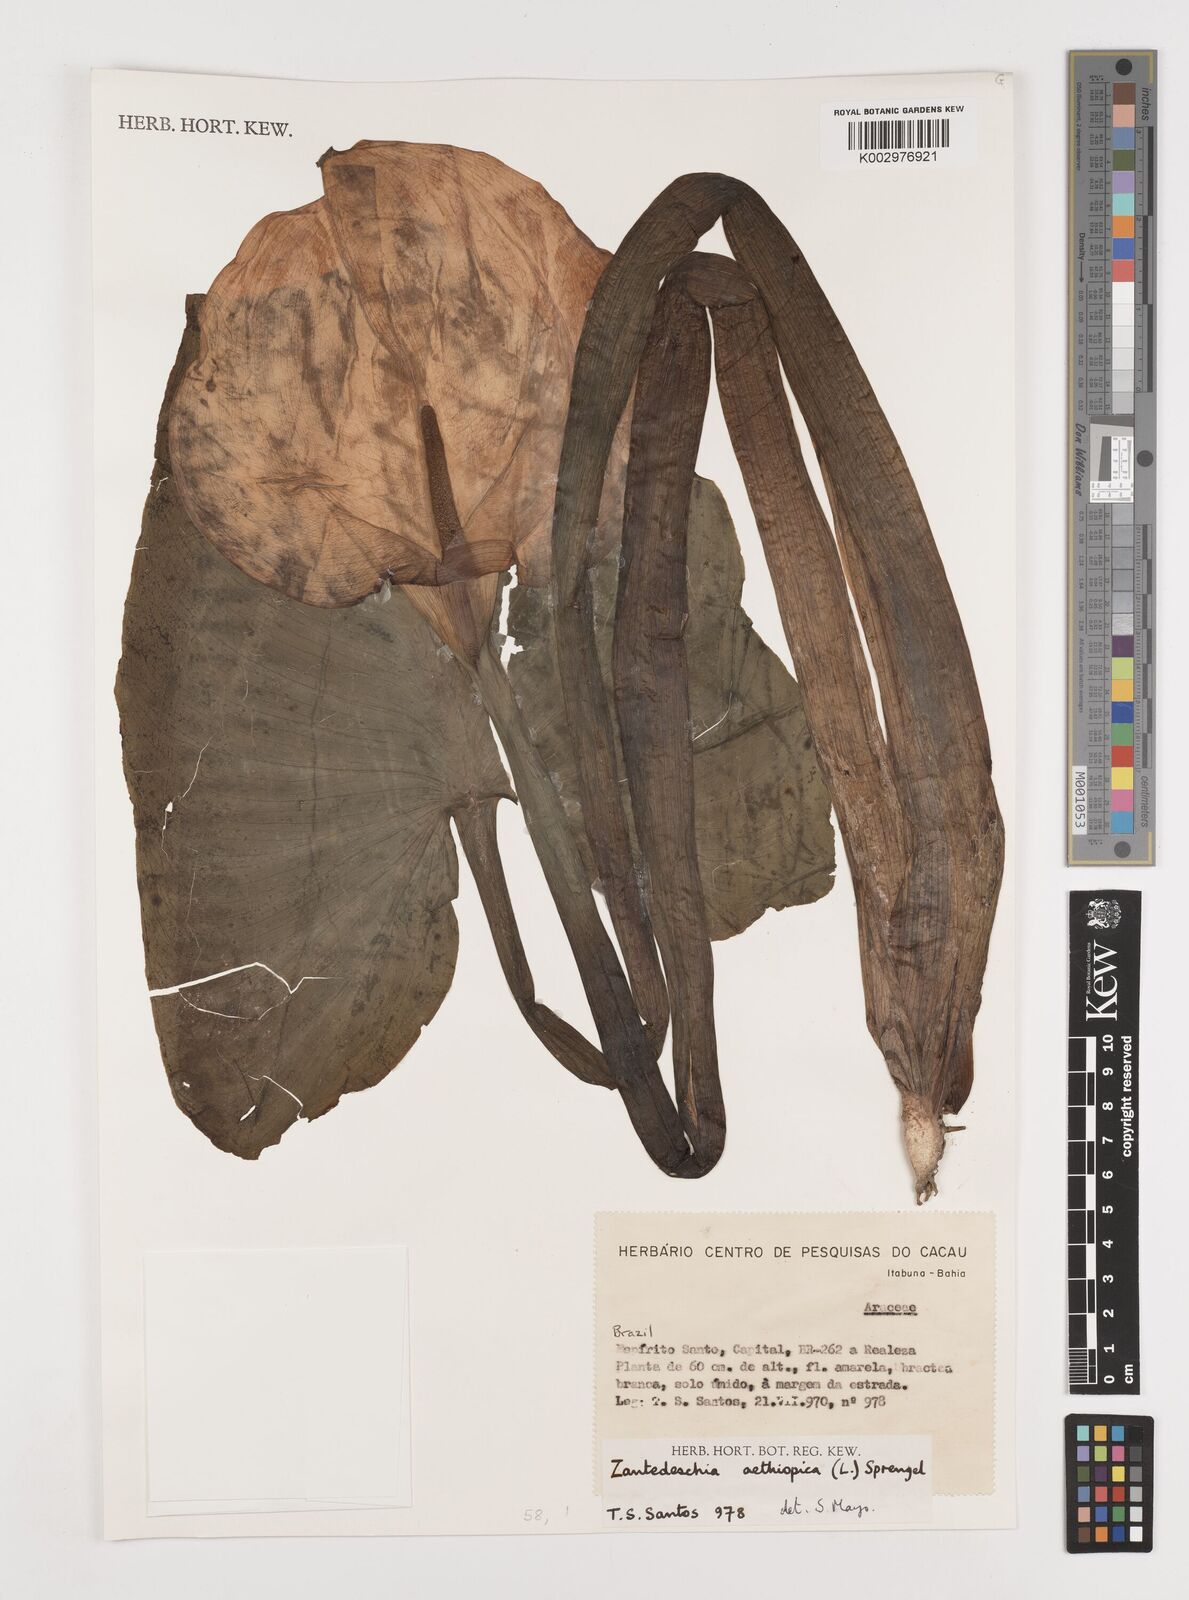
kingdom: Plantae
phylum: Tracheophyta
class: Liliopsida
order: Alismatales
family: Araceae
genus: Zantedeschia
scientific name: Zantedeschia aethiopica
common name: Altar-lily
